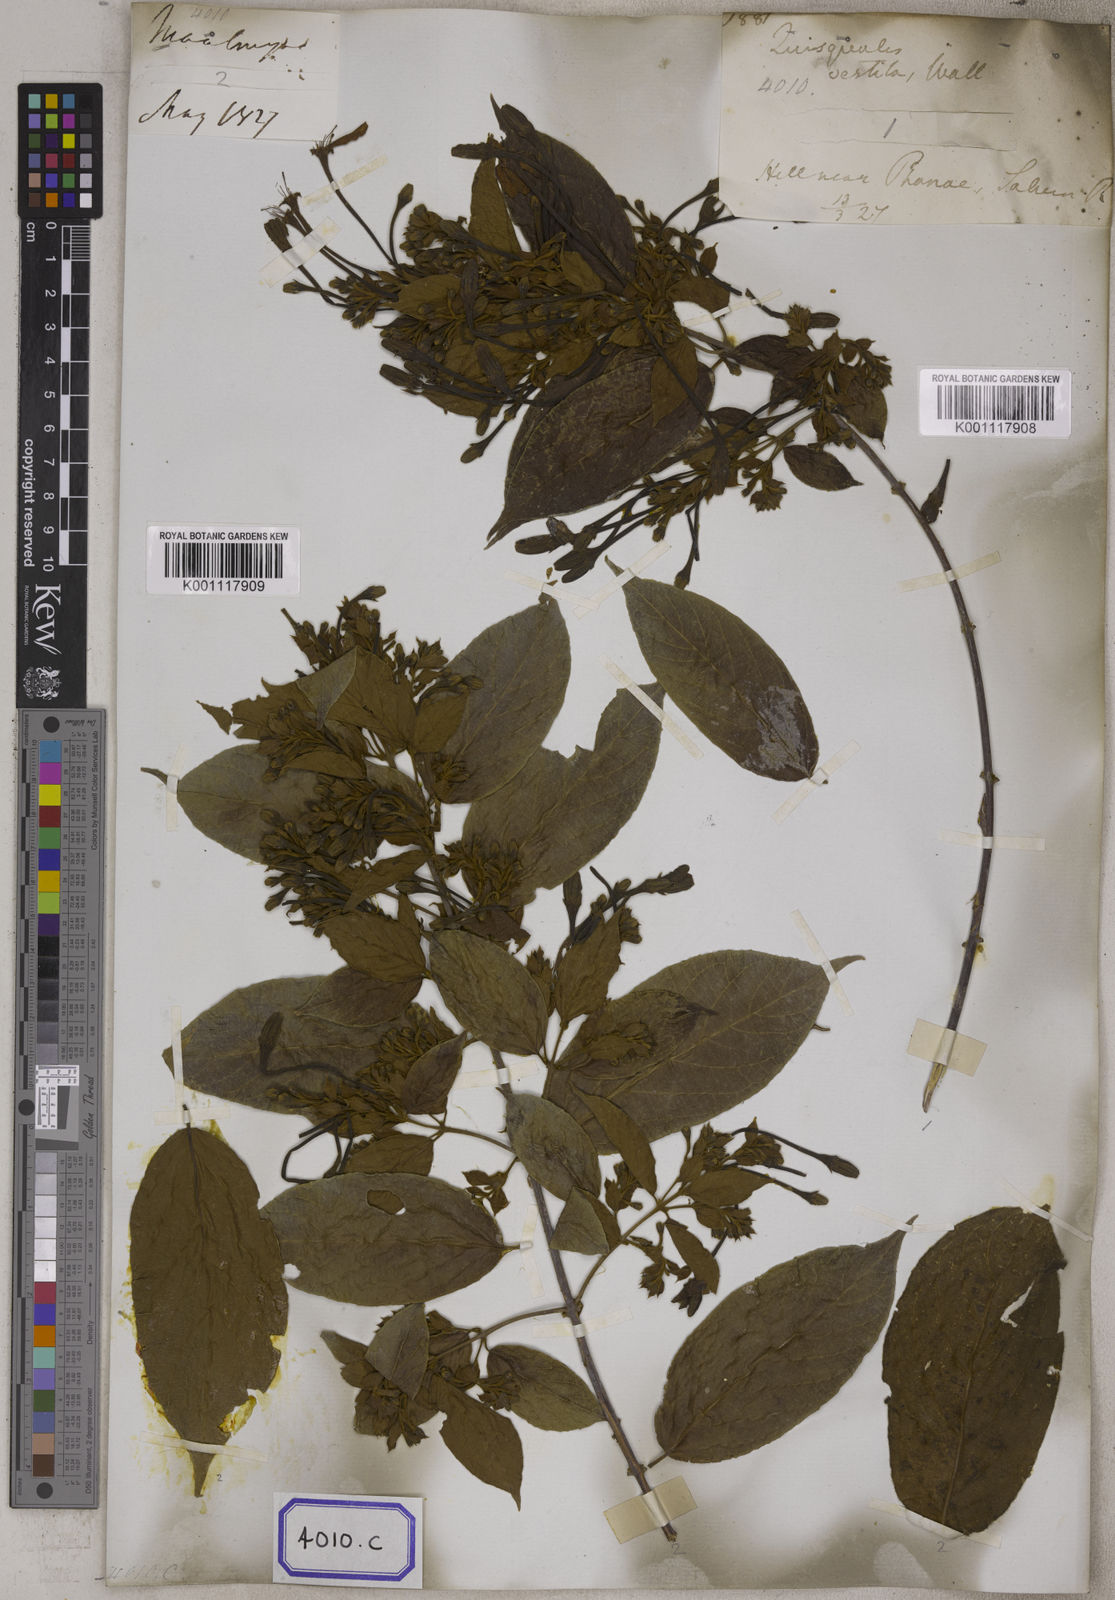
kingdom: Plantae
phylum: Tracheophyta
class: Magnoliopsida
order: Myrtales
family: Combretaceae
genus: Combretum
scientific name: Combretum indicum
